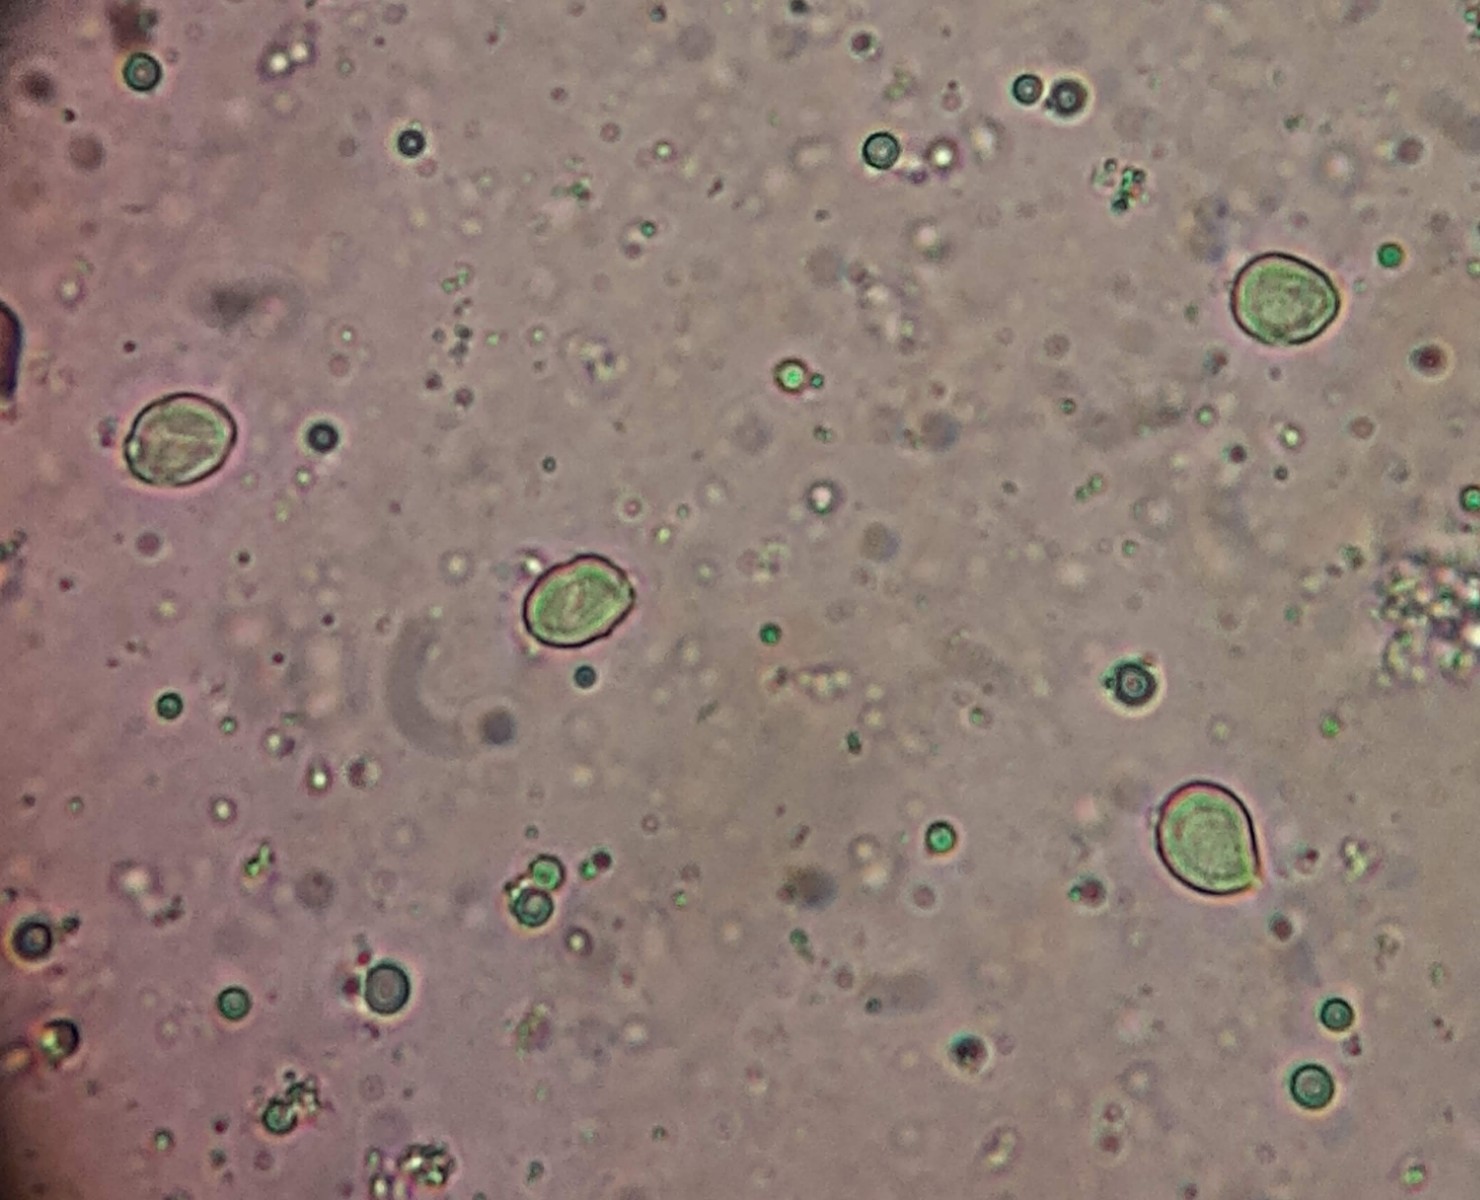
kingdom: Fungi
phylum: Basidiomycota
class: Agaricomycetes
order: Cantharellales
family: Hydnaceae
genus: Hydnum
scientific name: Hydnum repandum
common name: almindelig pigsvamp
